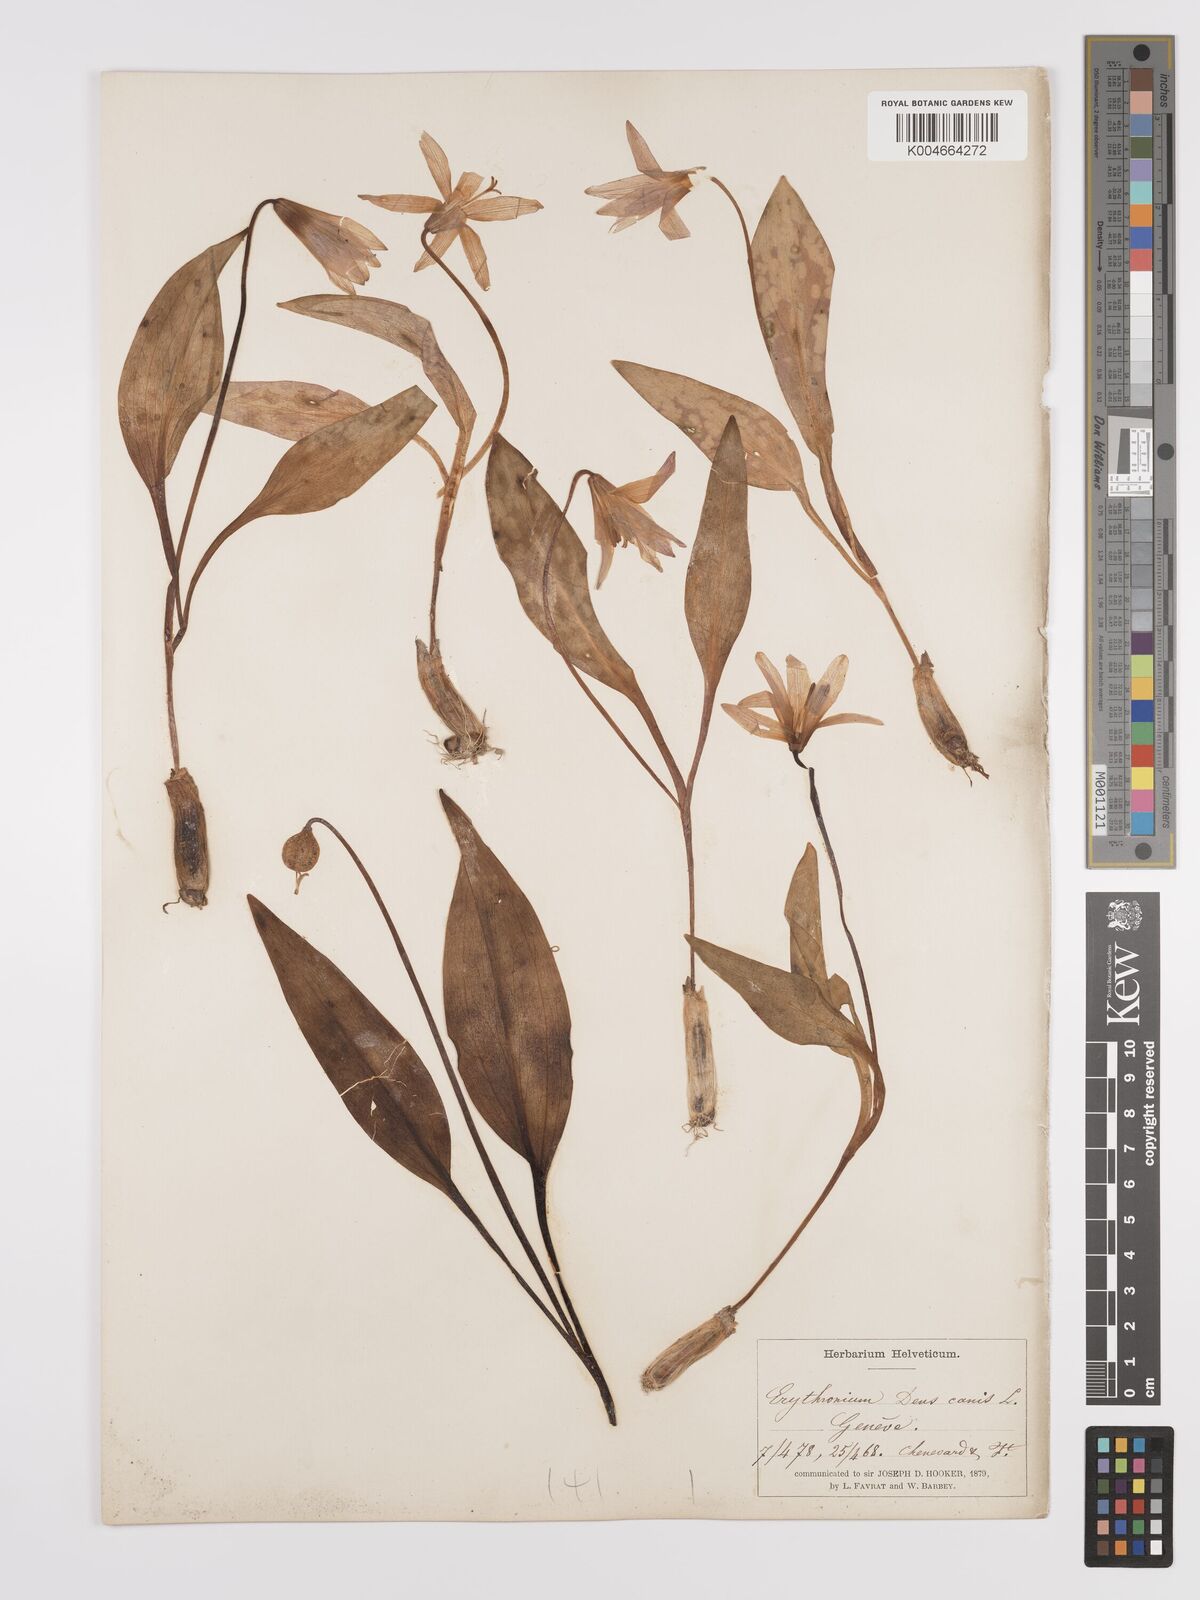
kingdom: Plantae
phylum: Tracheophyta
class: Liliopsida
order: Liliales
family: Liliaceae
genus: Erythronium
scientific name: Erythronium dens-canis
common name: Dog's-tooth-violet
